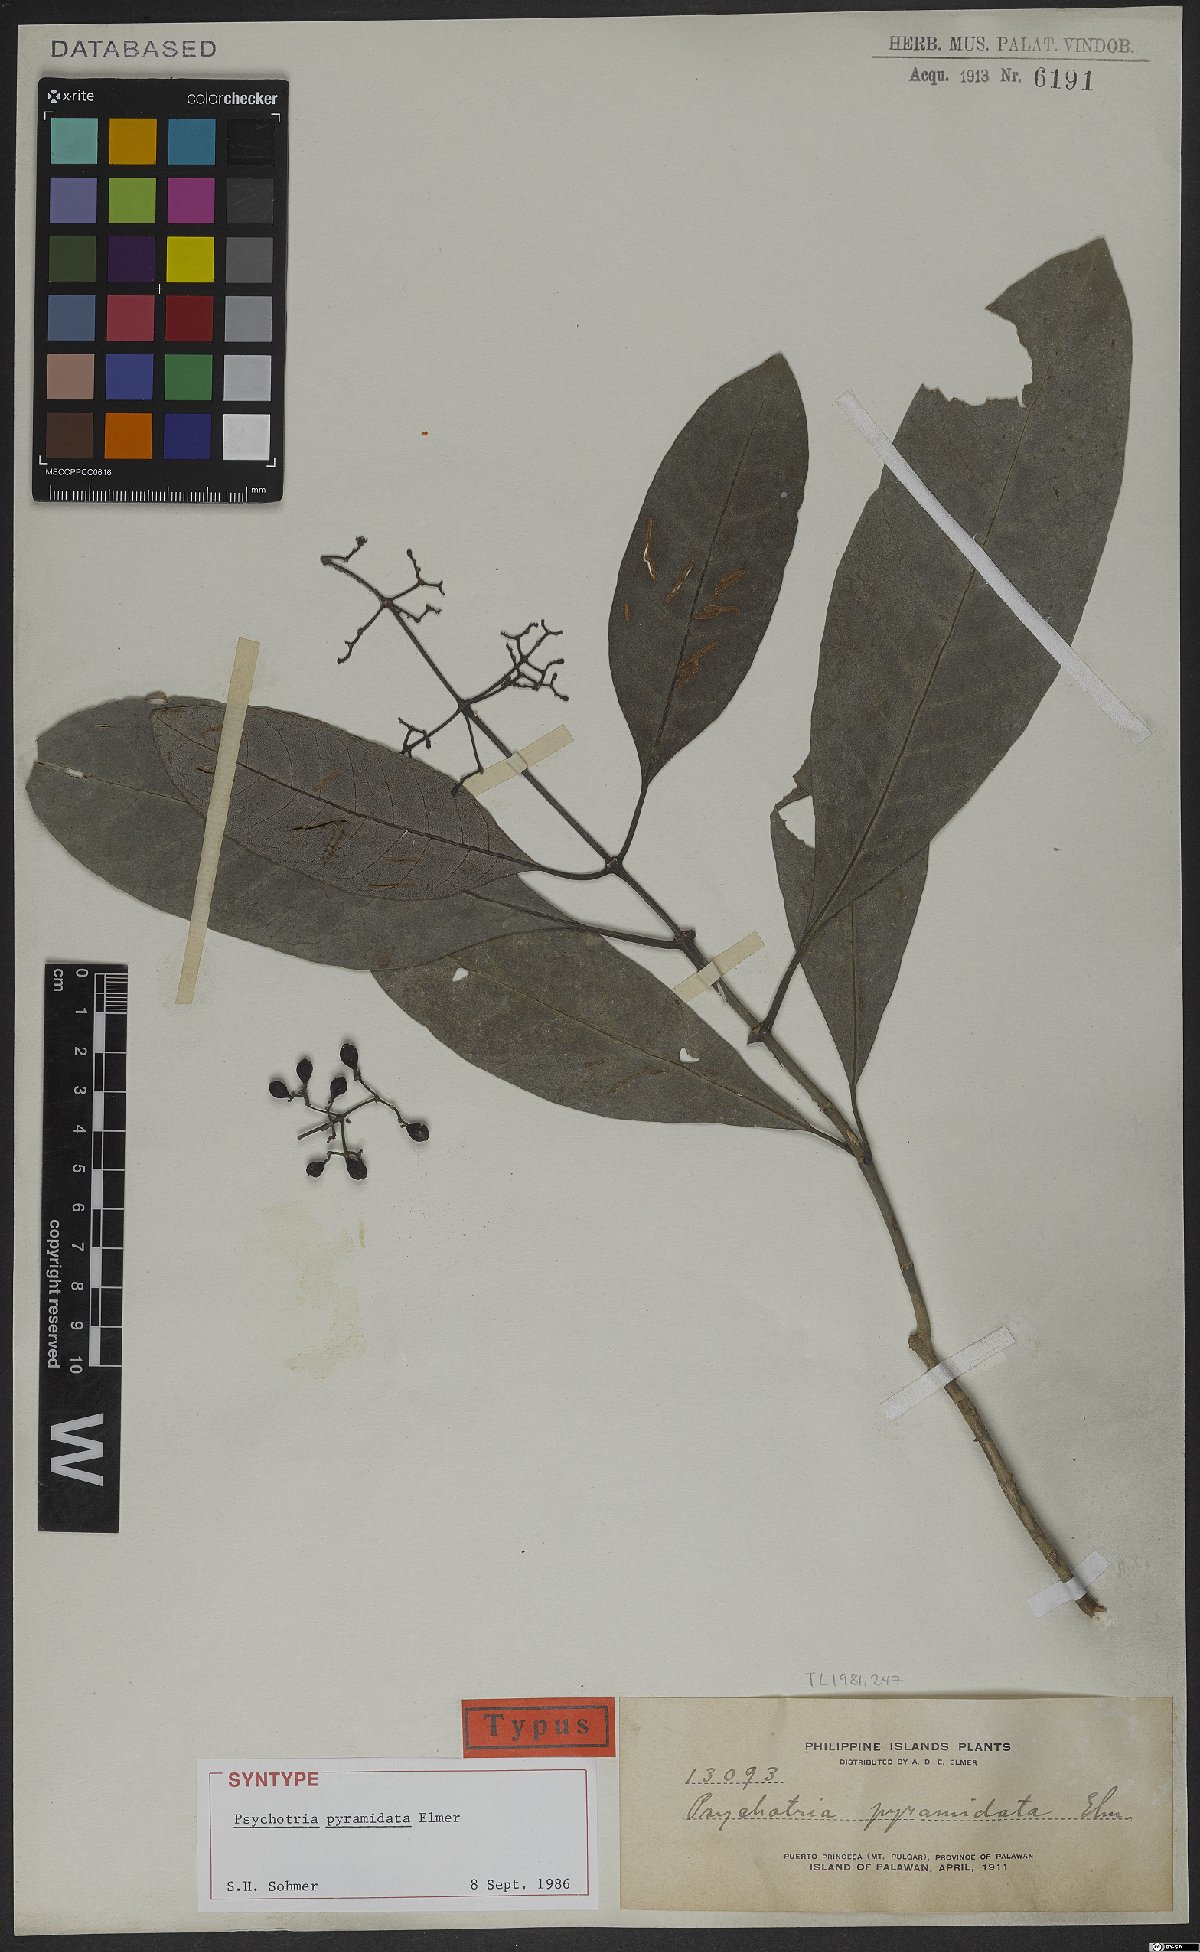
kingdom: Plantae
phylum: Tracheophyta
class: Magnoliopsida
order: Gentianales
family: Rubiaceae
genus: Psychotria
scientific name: Psychotria pyramidata
